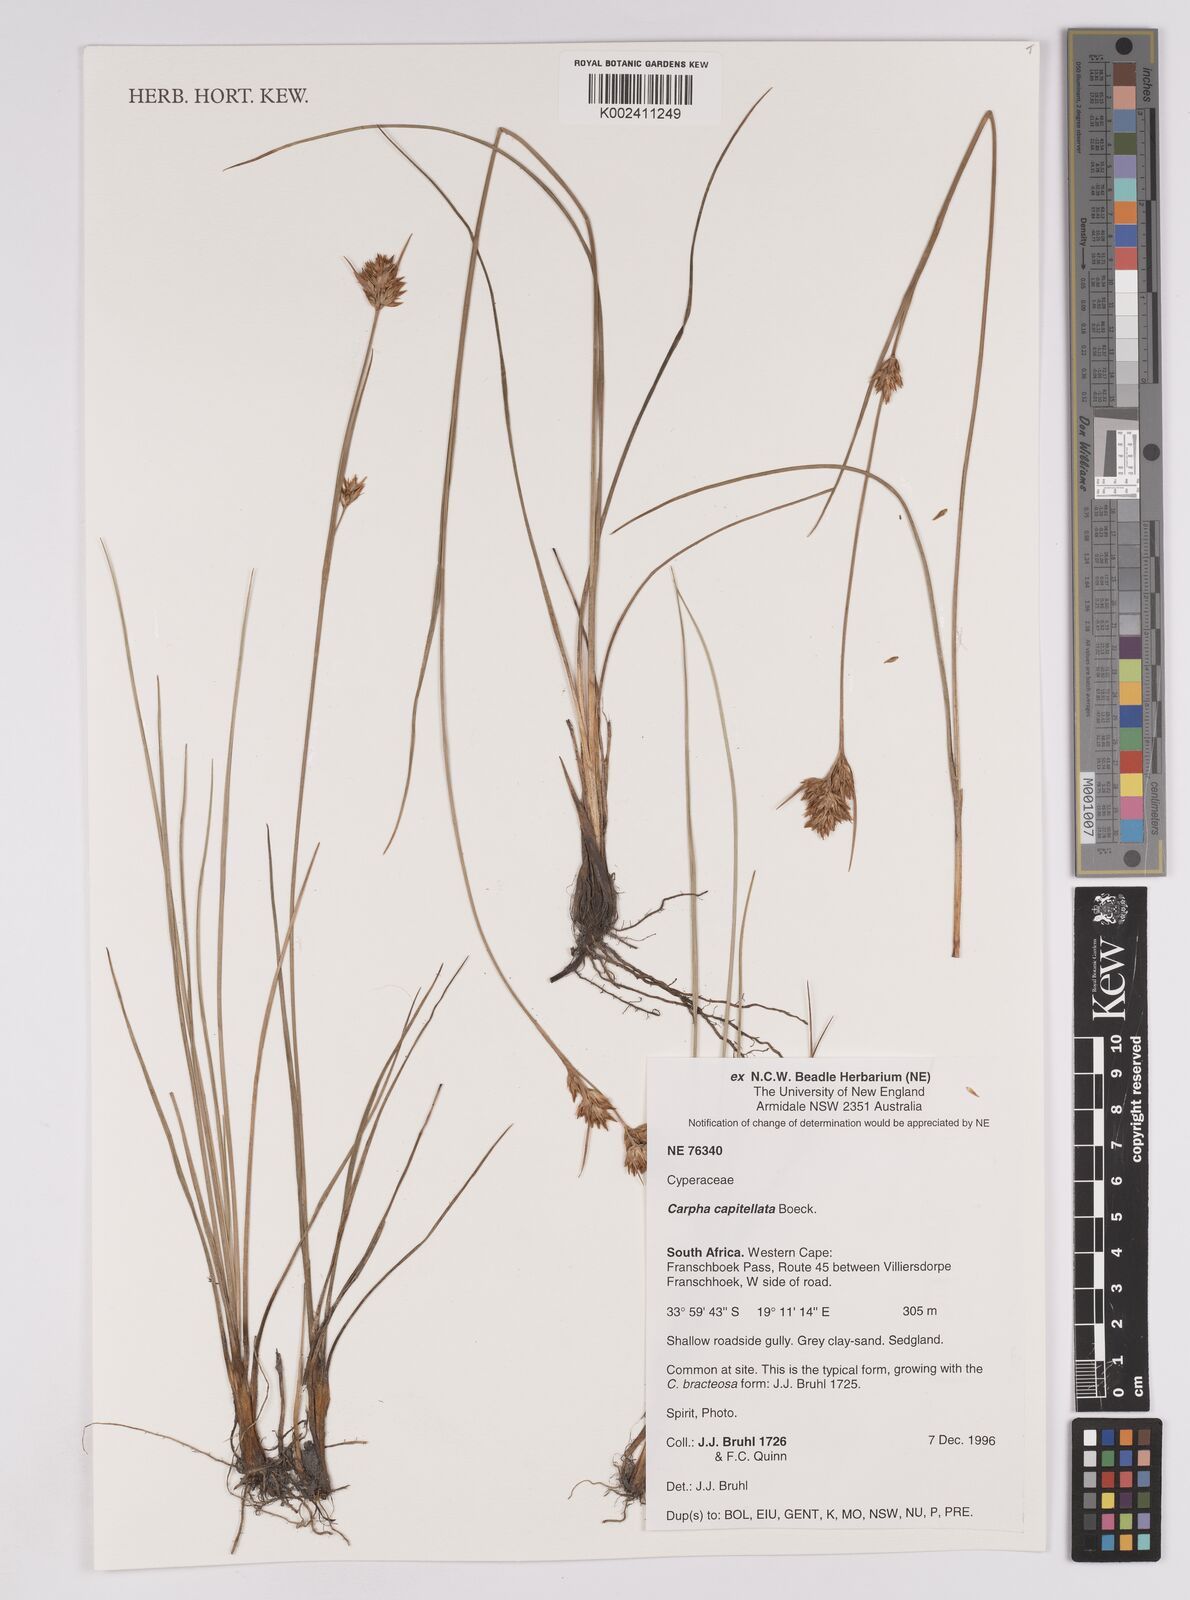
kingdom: Plantae
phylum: Tracheophyta
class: Liliopsida
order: Poales
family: Cyperaceae
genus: Carpha
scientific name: Carpha
